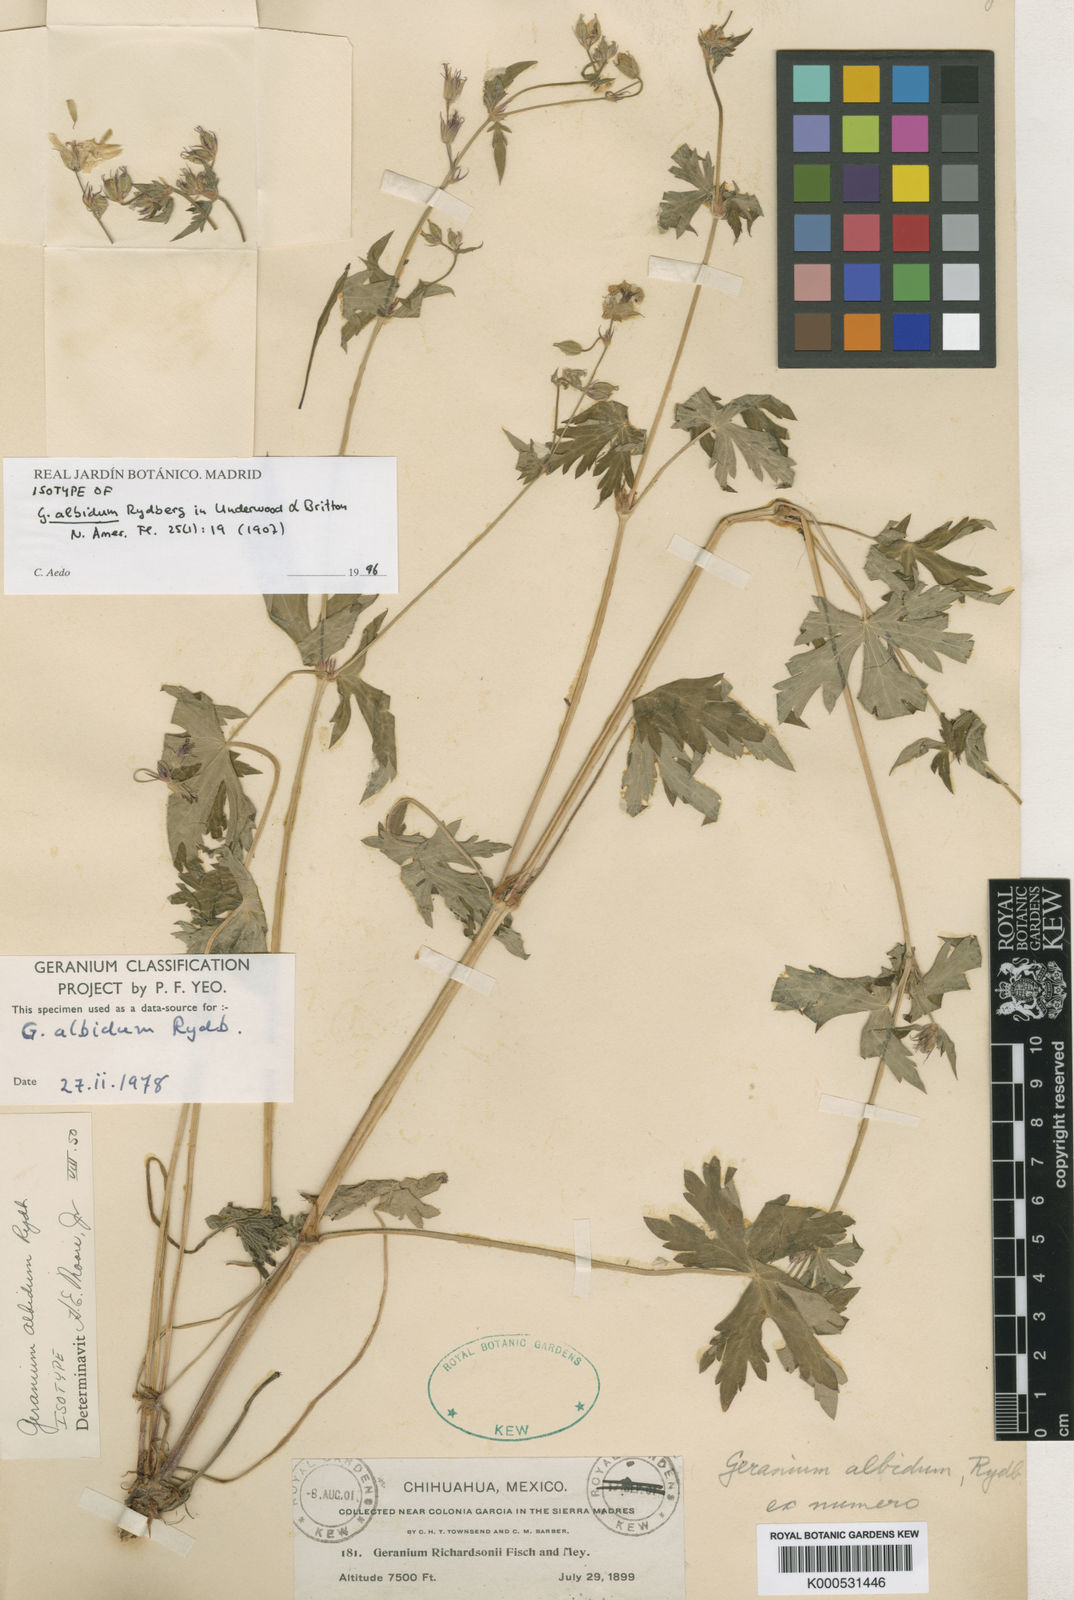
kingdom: Plantae
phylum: Tracheophyta
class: Magnoliopsida
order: Geraniales
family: Geraniaceae
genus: Geranium
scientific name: Geranium
